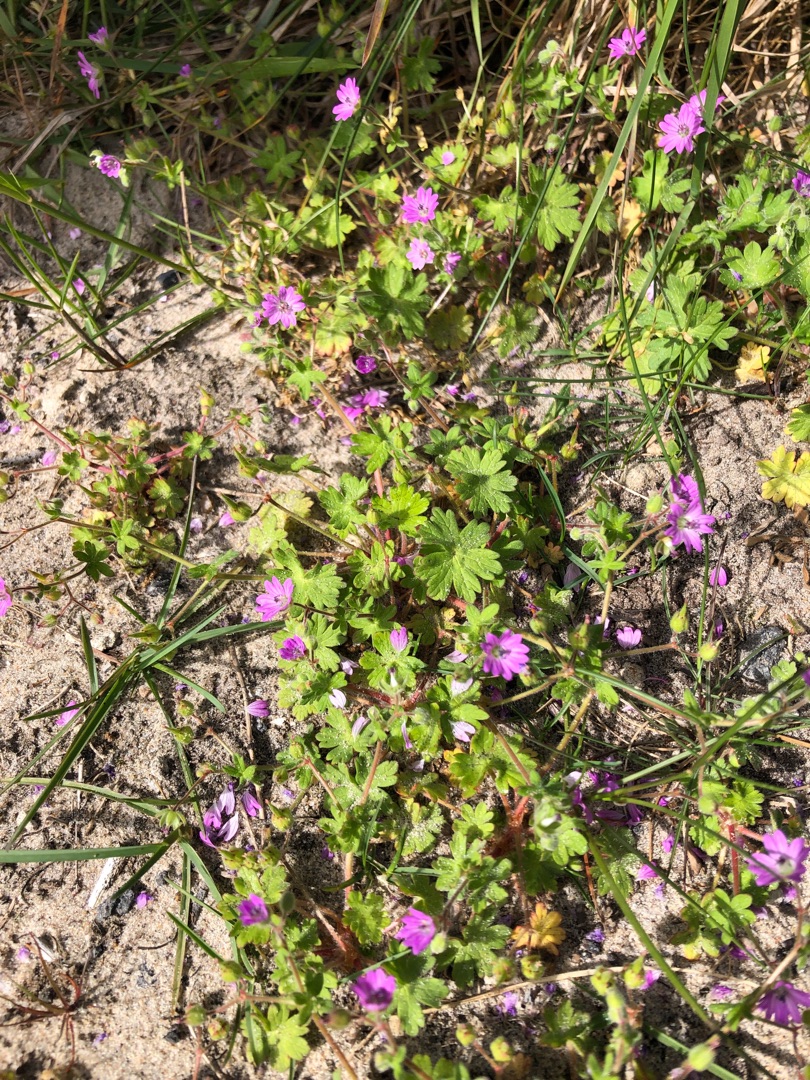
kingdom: Plantae
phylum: Tracheophyta
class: Magnoliopsida
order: Geraniales
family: Geraniaceae
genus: Geranium
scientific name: Geranium molle
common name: Blød storkenæb
